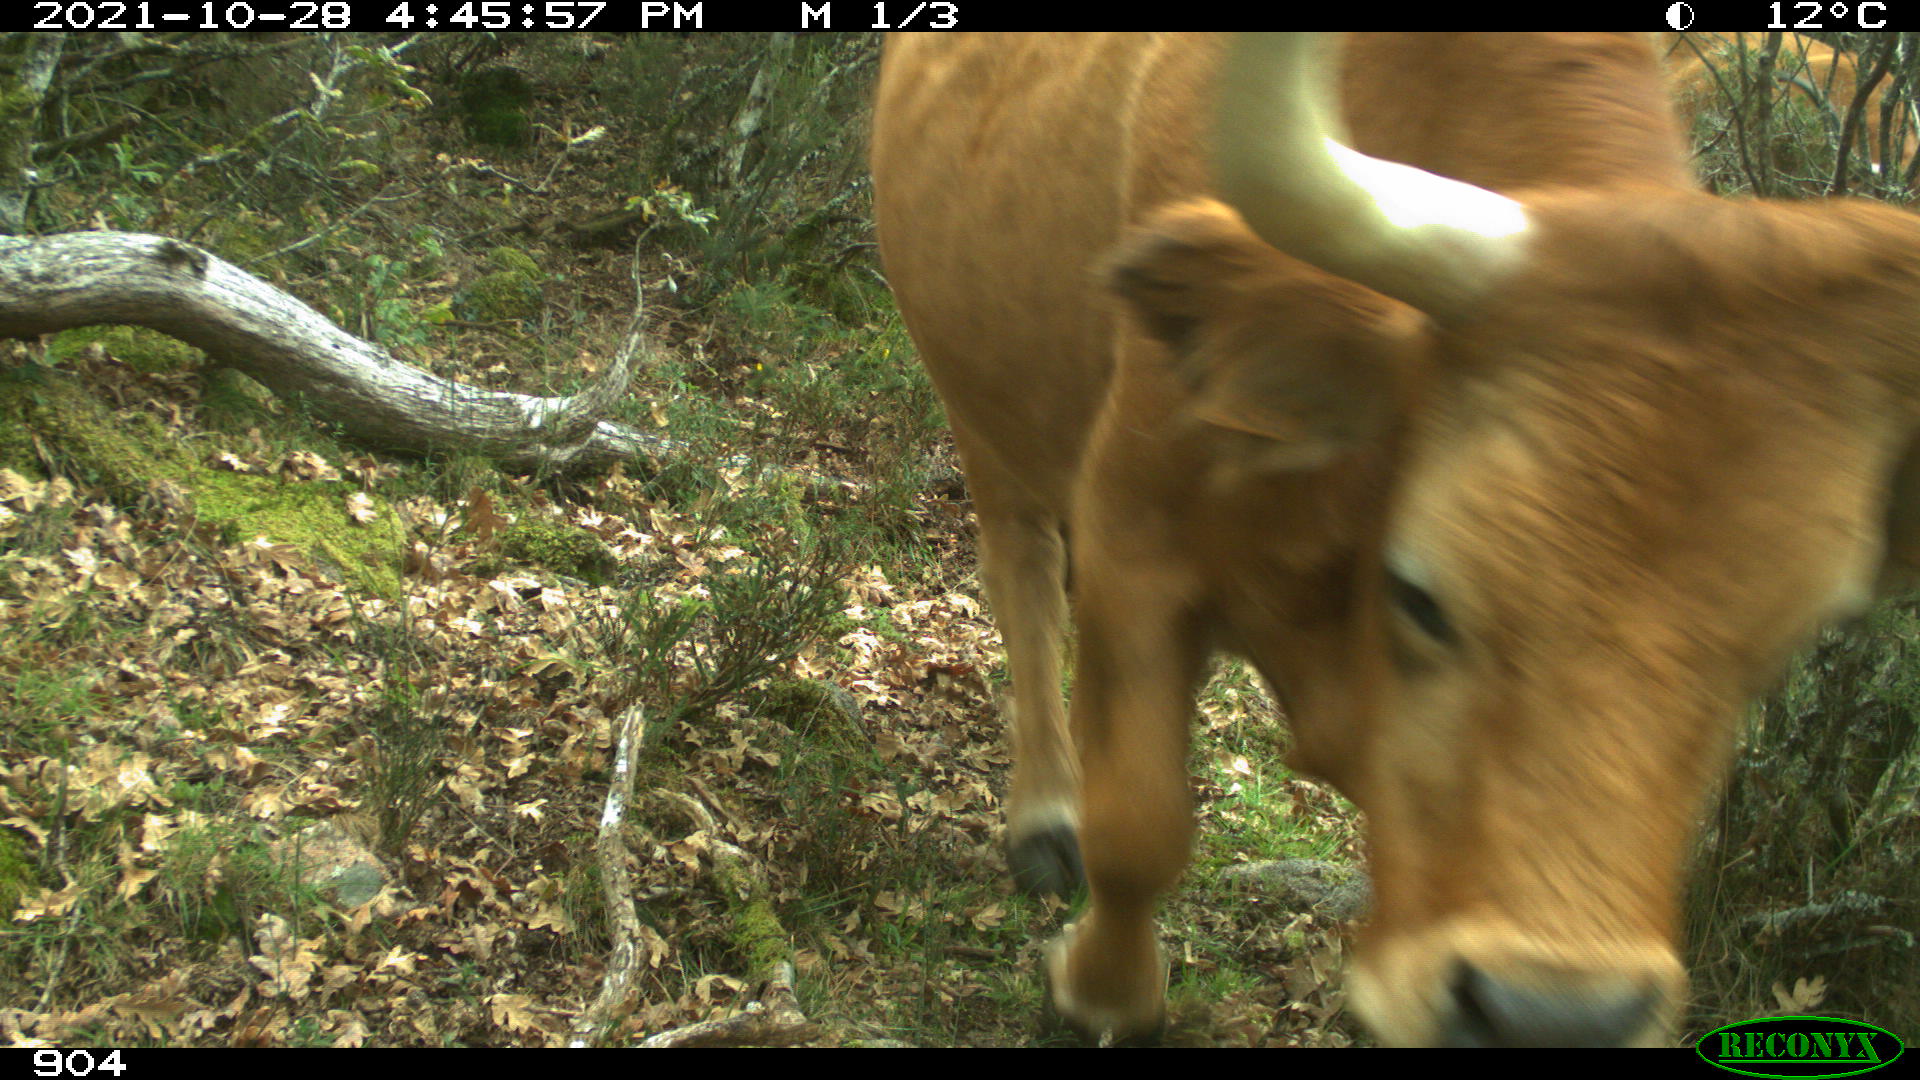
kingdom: Animalia
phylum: Chordata
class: Mammalia
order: Artiodactyla
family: Bovidae
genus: Bos
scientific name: Bos taurus
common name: Domesticated cattle
